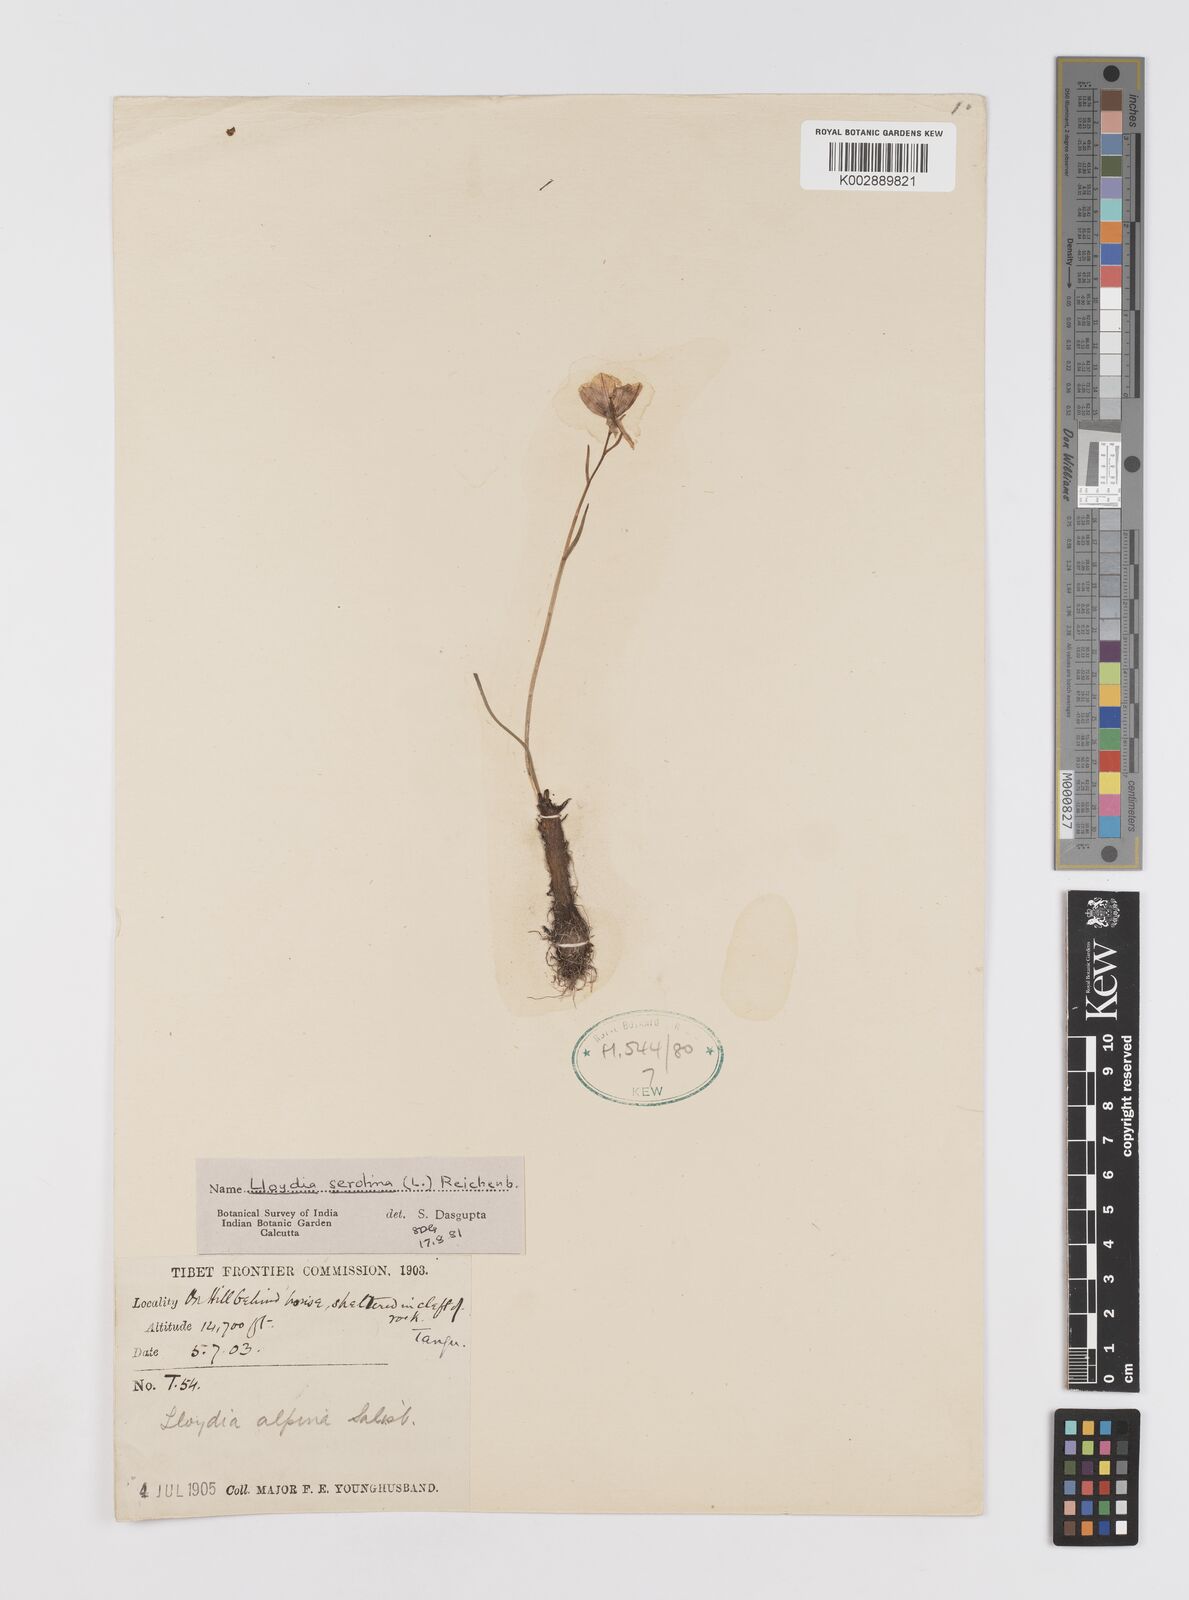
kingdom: Plantae
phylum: Tracheophyta
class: Liliopsida
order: Liliales
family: Liliaceae
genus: Gagea
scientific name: Gagea serotina
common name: Snowdon lily
